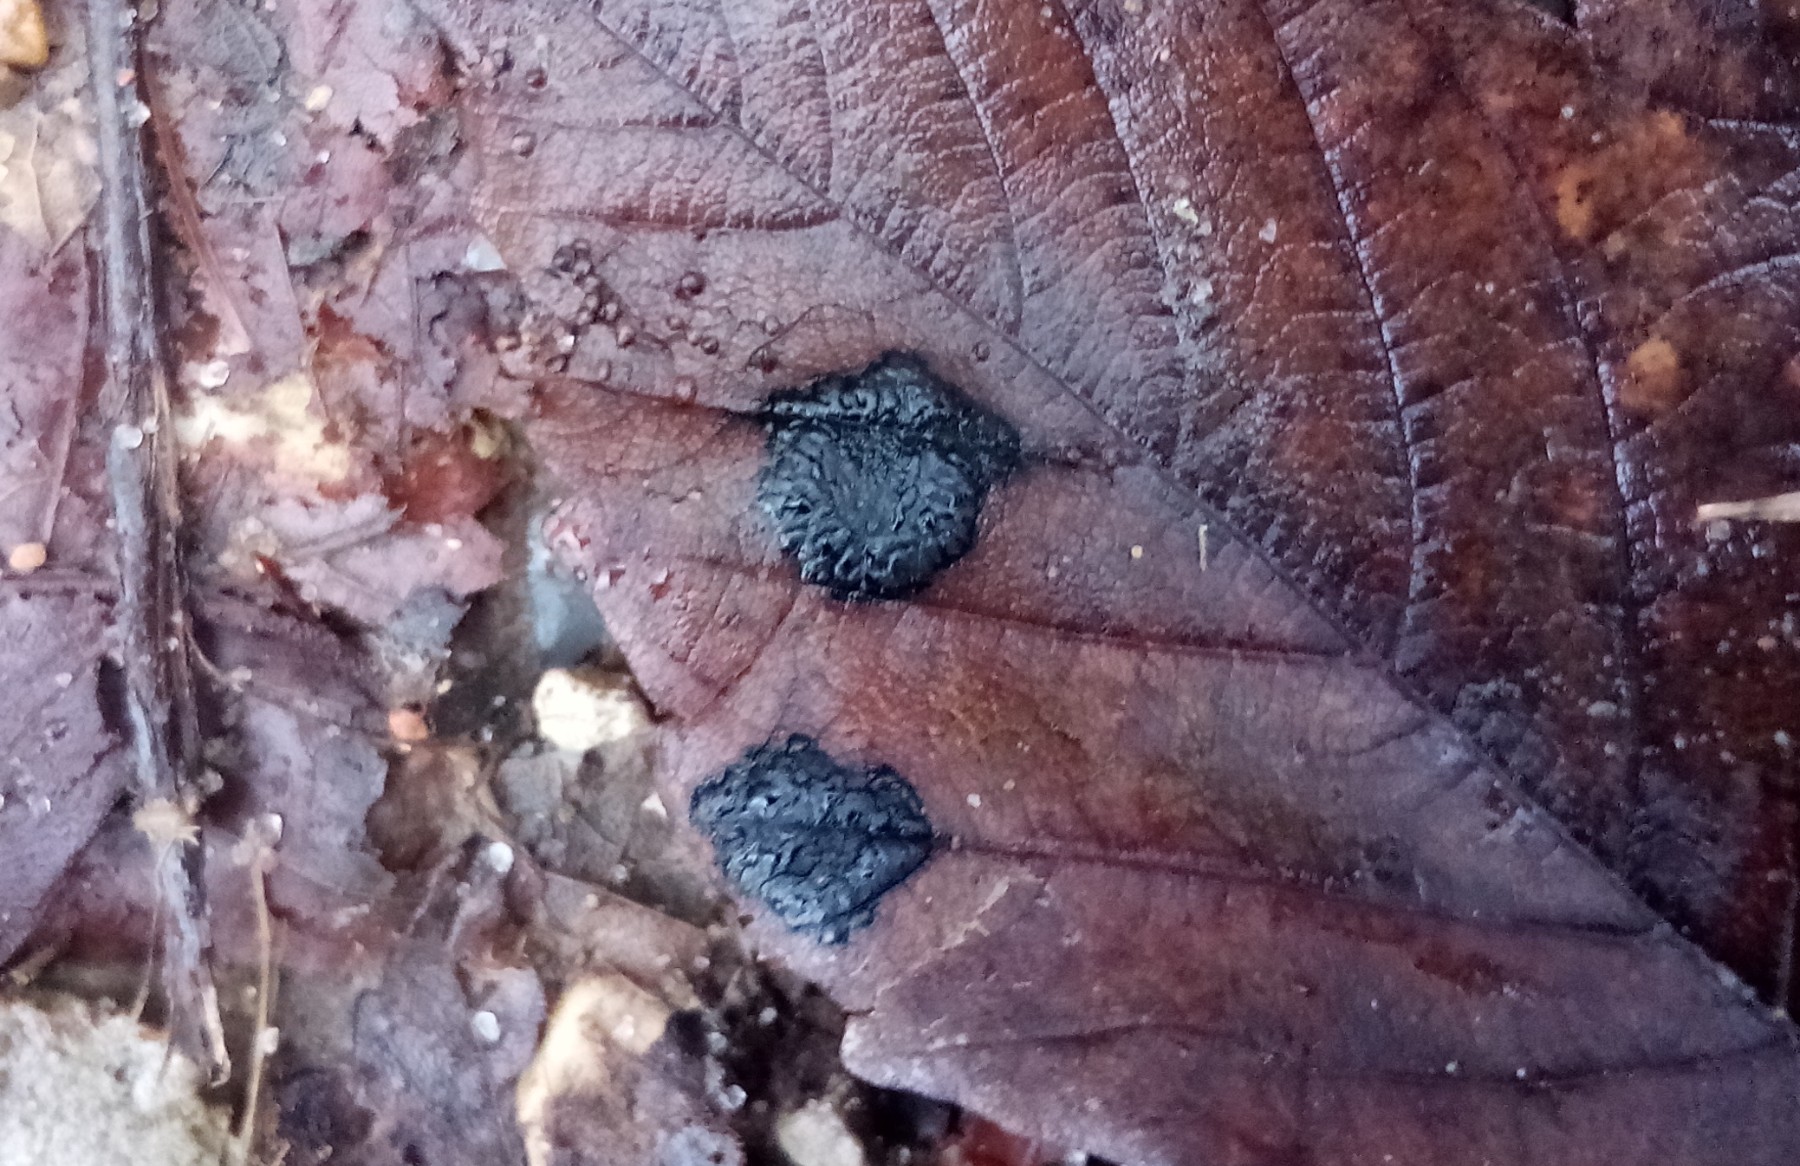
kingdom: Fungi
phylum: Ascomycota
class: Leotiomycetes
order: Rhytismatales
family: Rhytismataceae
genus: Rhytisma
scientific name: Rhytisma acerinum
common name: ahorn-rynkeplet
